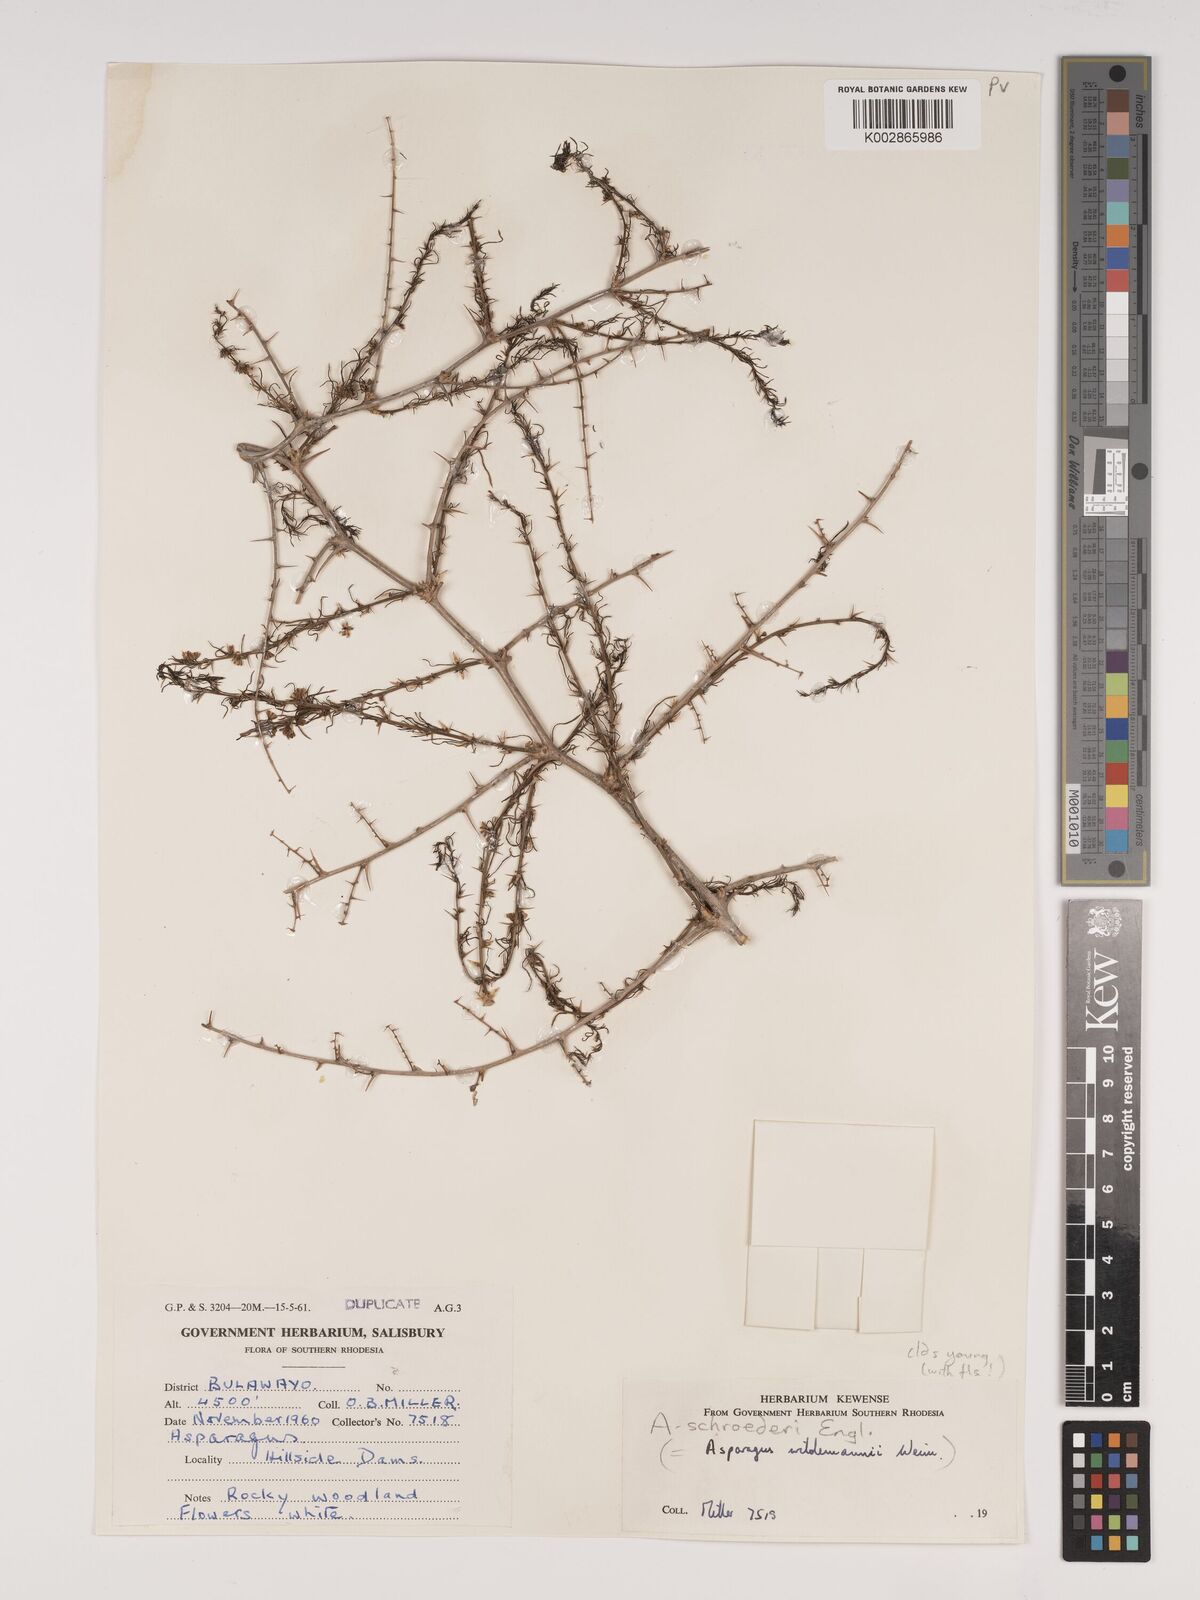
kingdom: Plantae
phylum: Tracheophyta
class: Liliopsida
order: Asparagales
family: Asparagaceae
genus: Asparagus
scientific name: Asparagus schroederi
